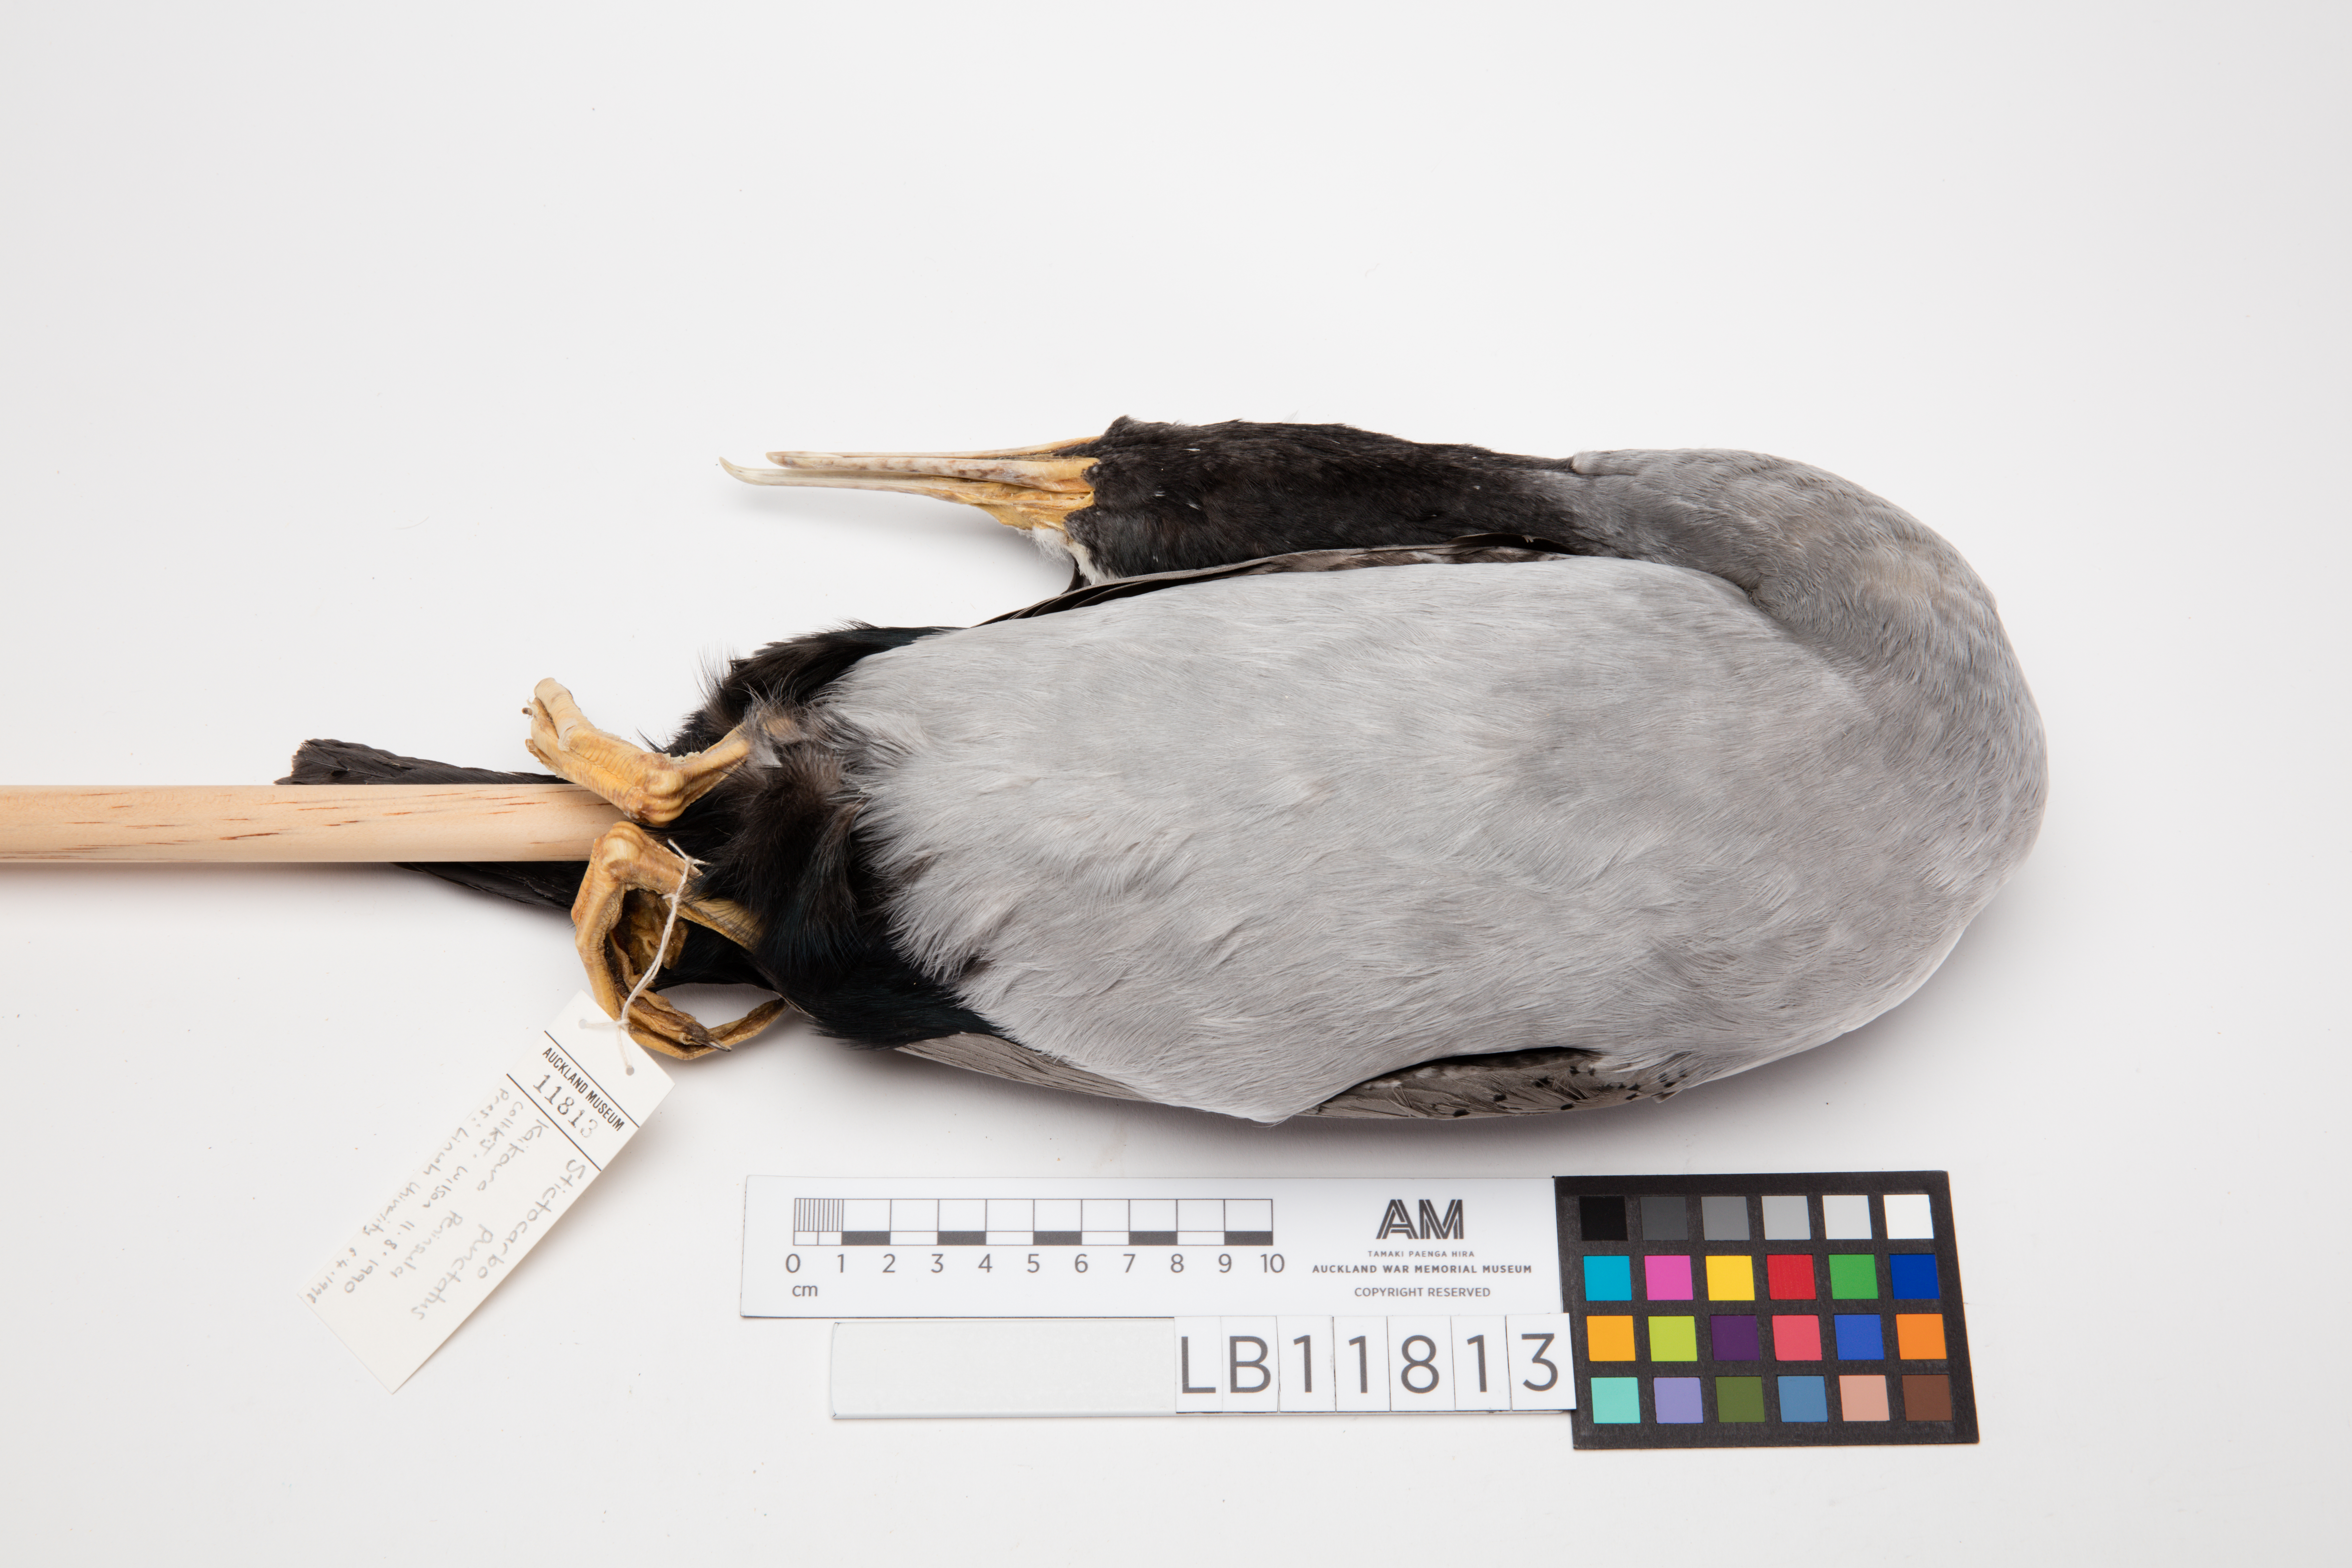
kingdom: Animalia
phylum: Chordata
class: Aves
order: Suliformes
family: Phalacrocoracidae
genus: Phalacrocorax
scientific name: Phalacrocorax punctatus
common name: Spotted shag
